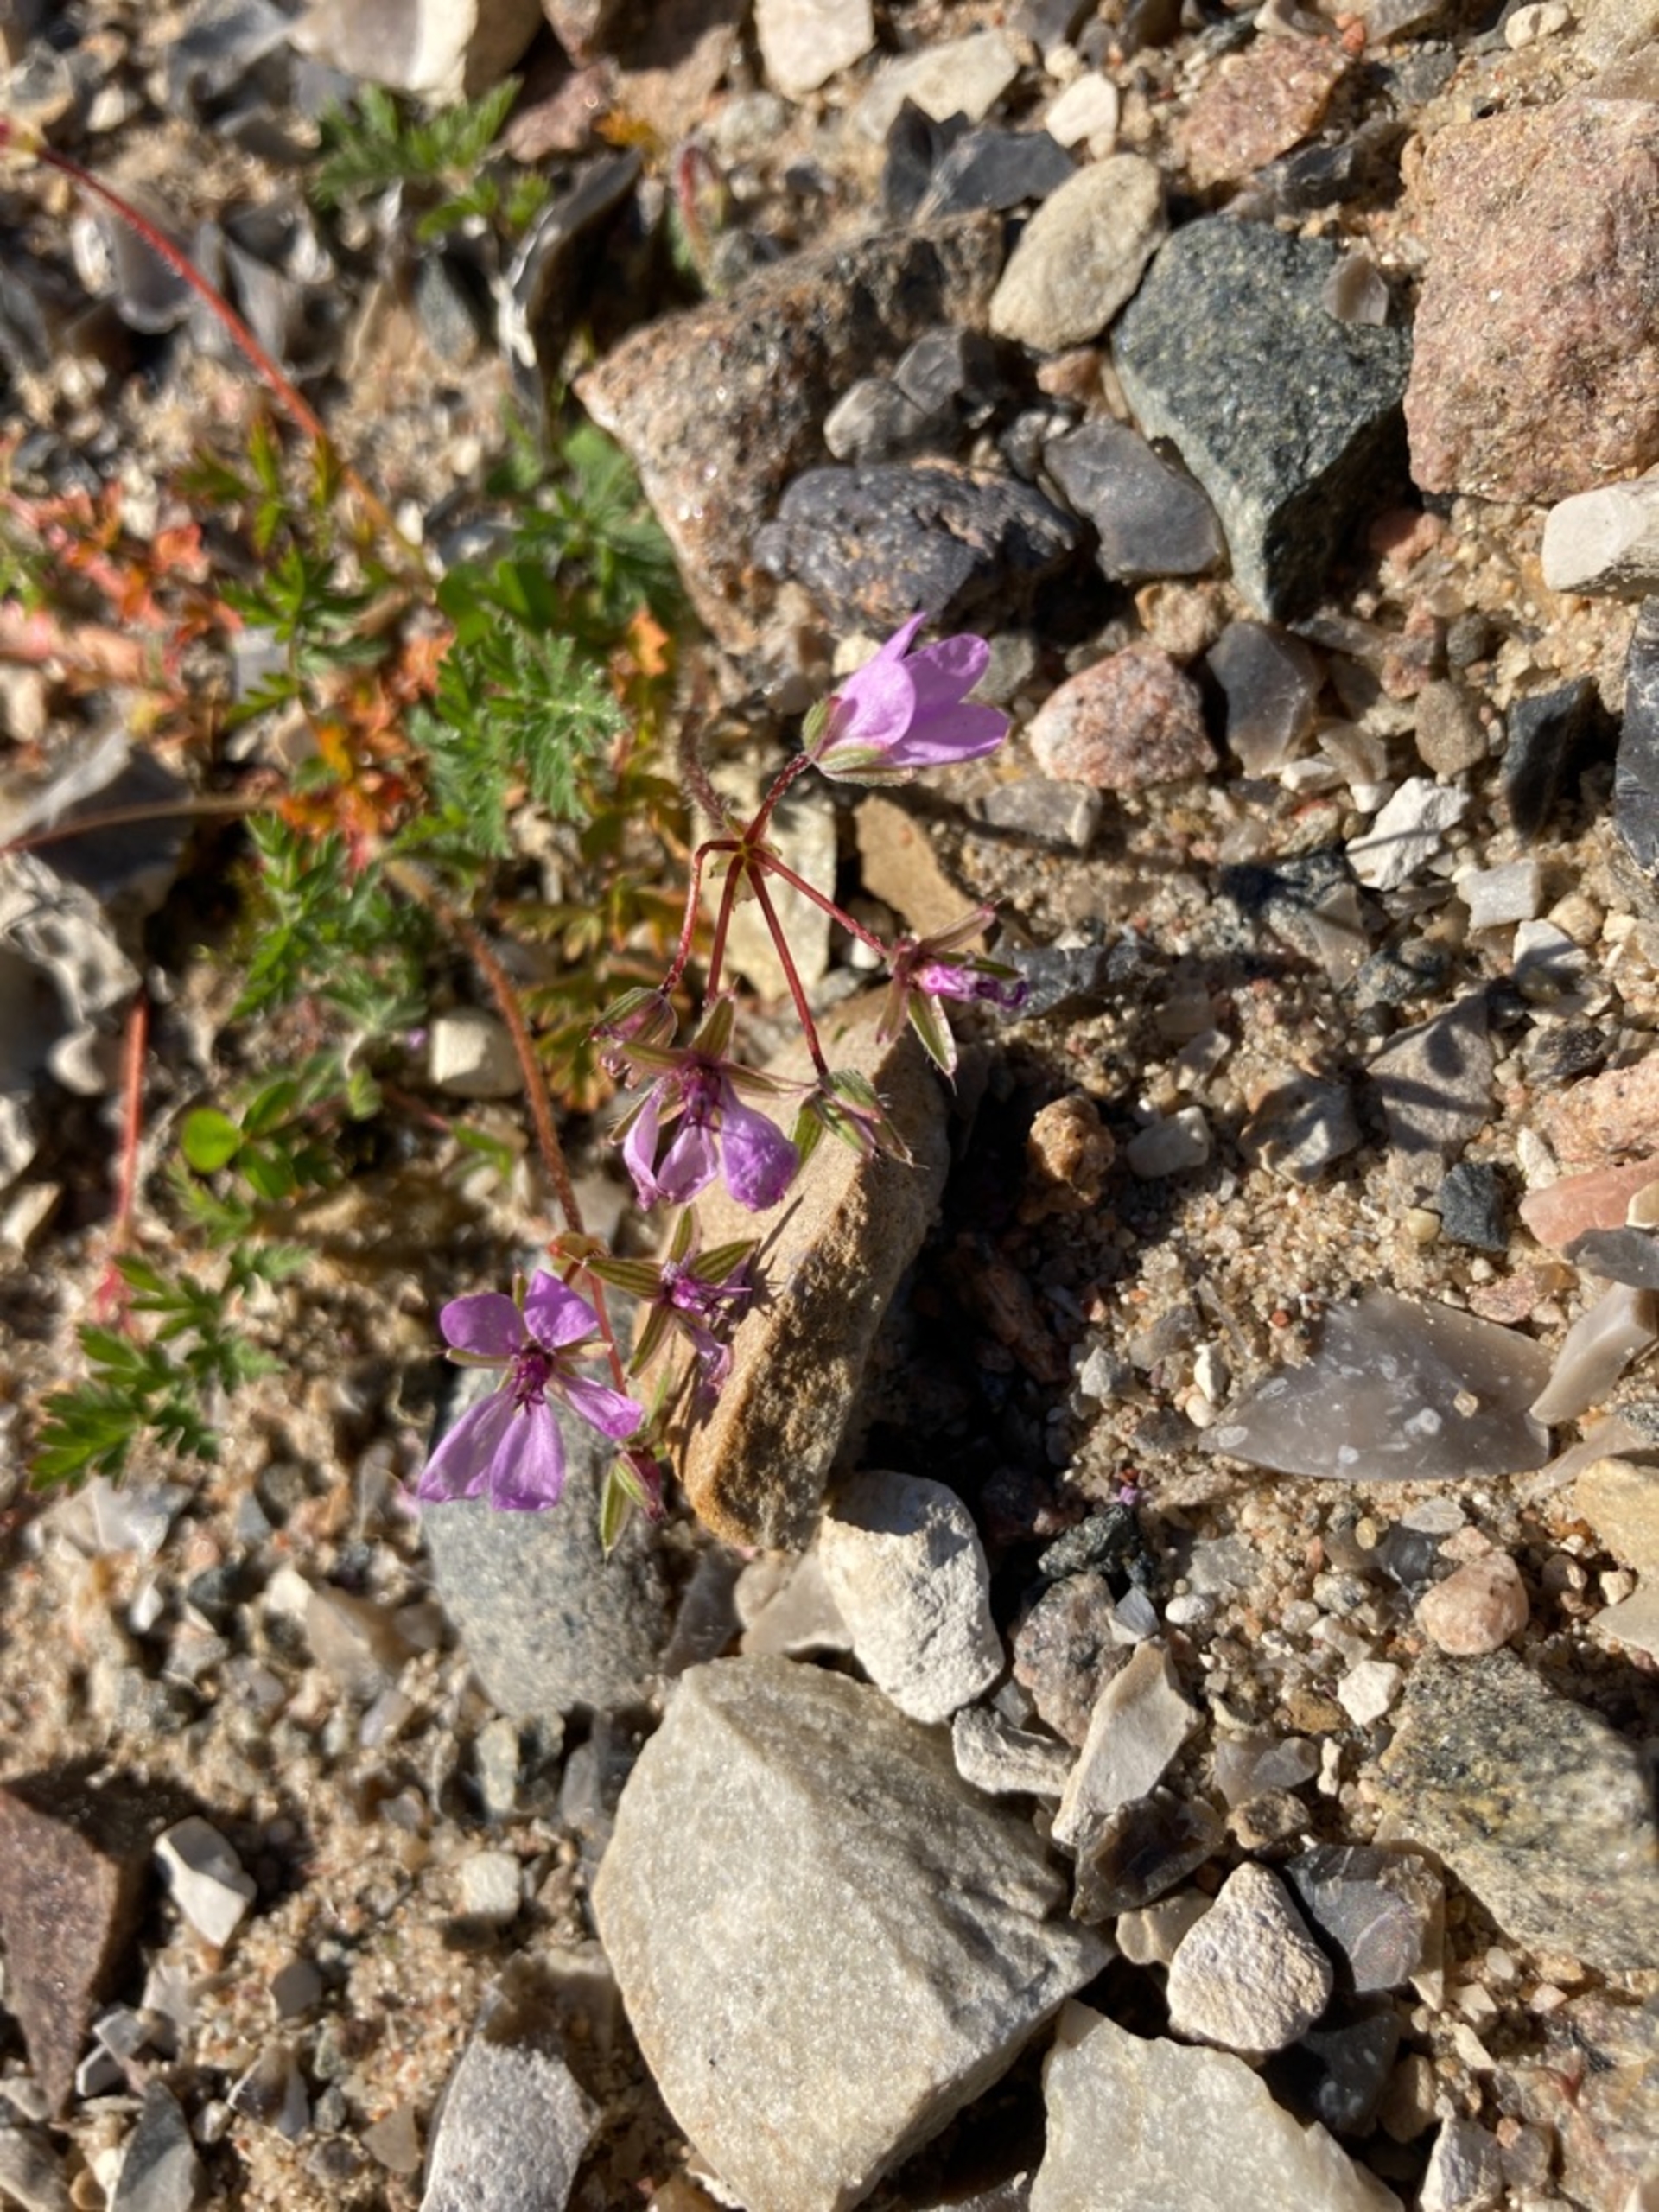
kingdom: Plantae
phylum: Tracheophyta
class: Magnoliopsida
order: Geraniales
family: Geraniaceae
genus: Erodium
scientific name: Erodium cicutarium
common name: Hejrenæb
